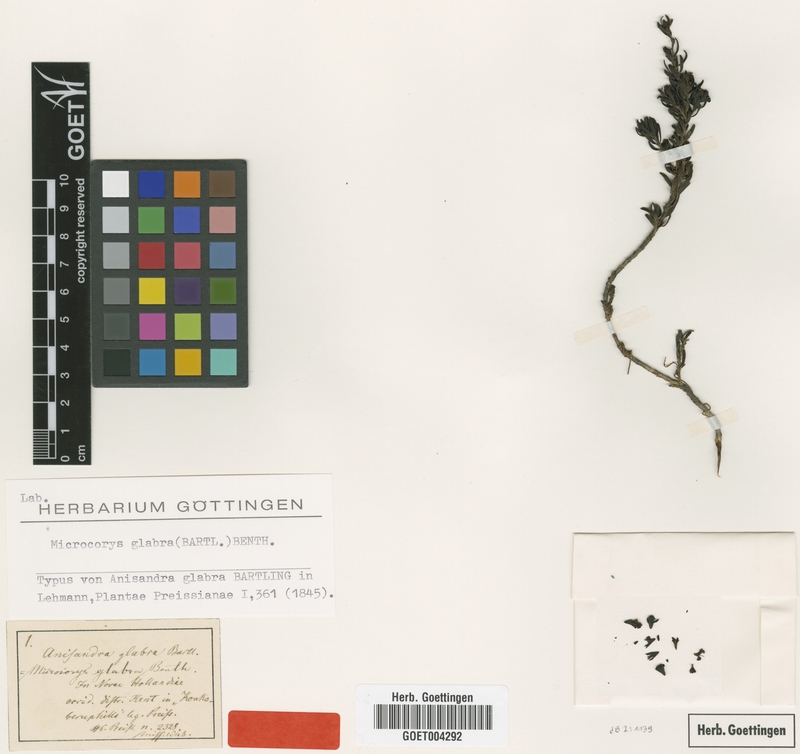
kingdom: Plantae
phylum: Tracheophyta
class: Magnoliopsida
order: Lamiales
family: Lamiaceae
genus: Microcorys
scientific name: Microcorys glabra
